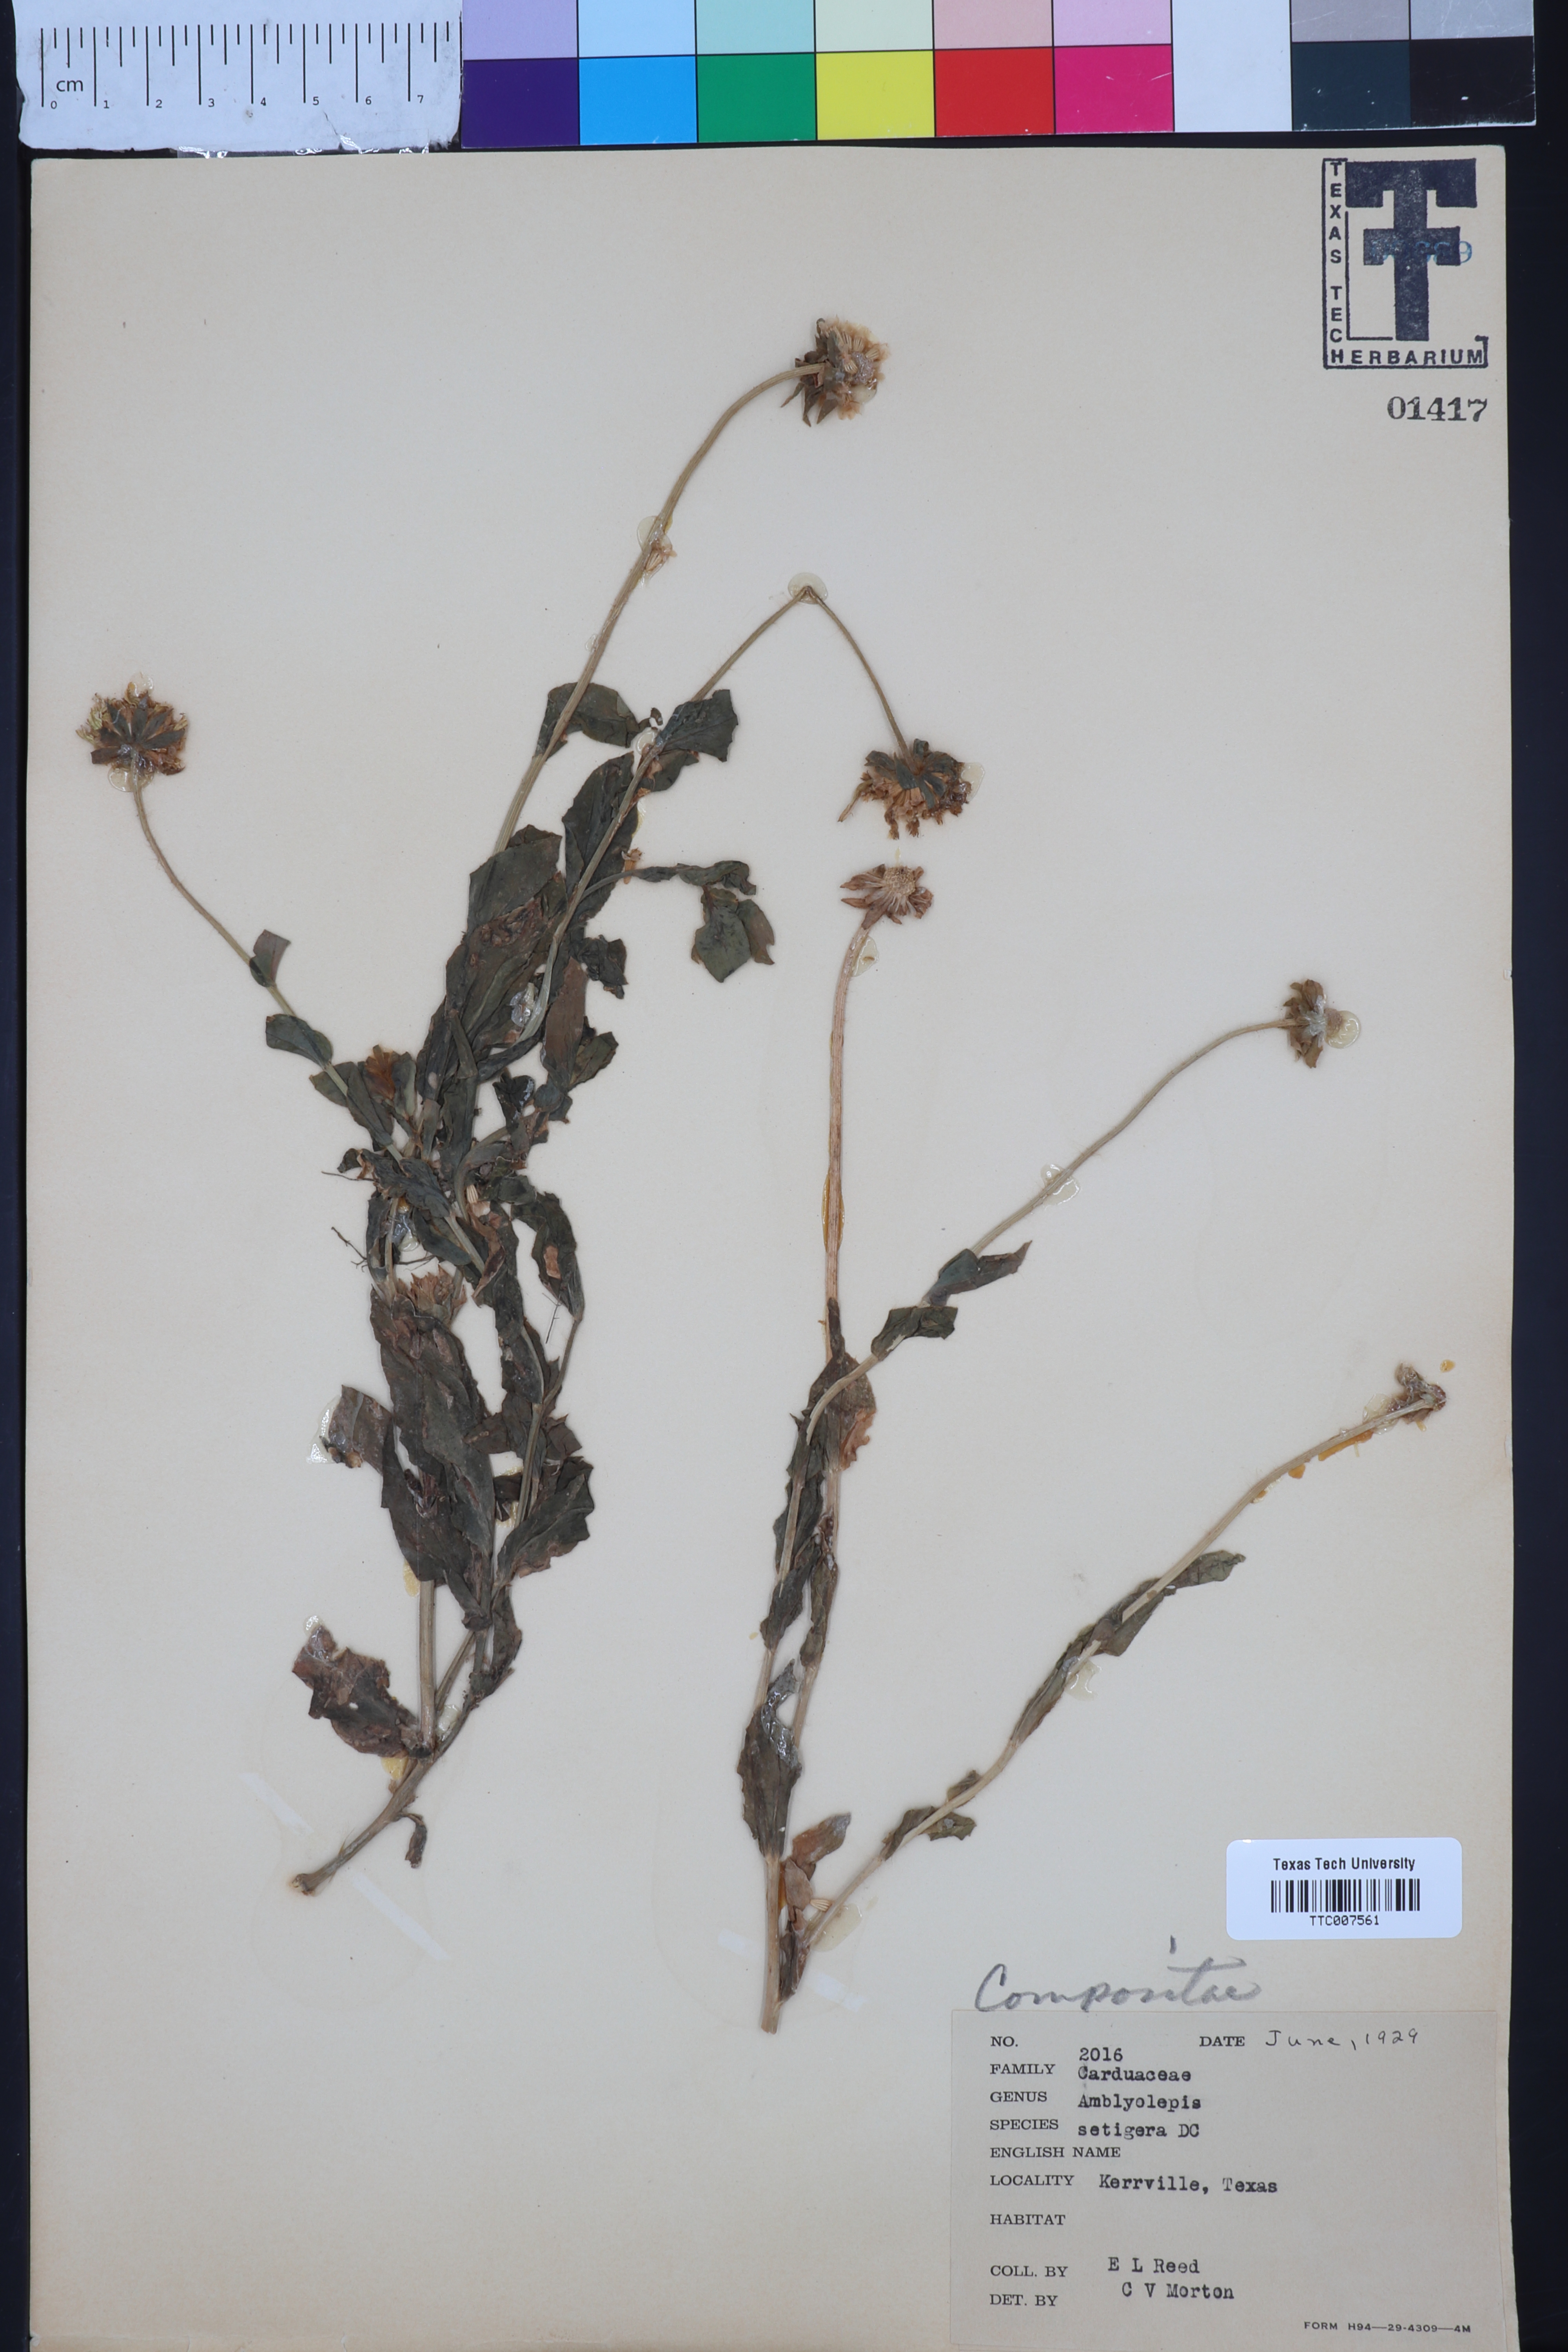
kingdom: Plantae
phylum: Tracheophyta
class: Magnoliopsida
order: Asterales
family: Asteraceae
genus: Amblyolepis
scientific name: Amblyolepis setigera
